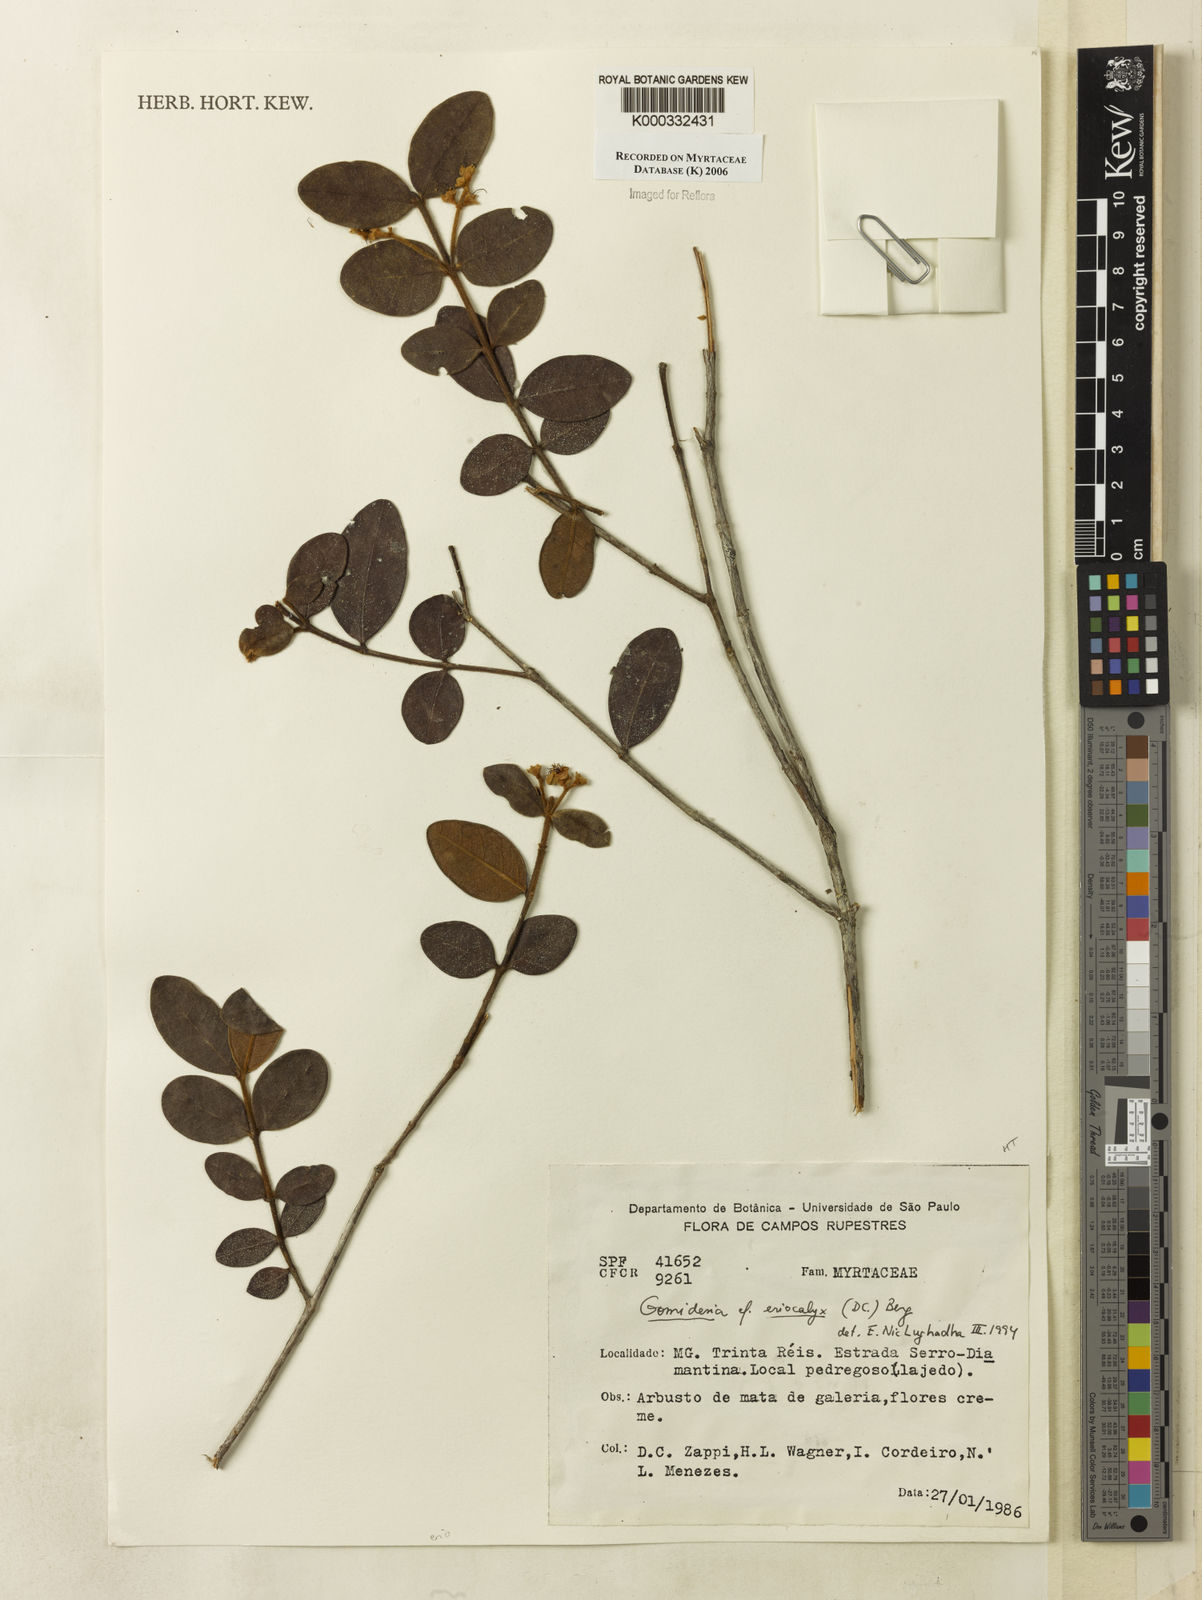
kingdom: Plantae
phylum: Tracheophyta
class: Magnoliopsida
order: Myrtales
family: Myrtaceae
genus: Myrcia
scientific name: Myrcia eriocalyx
